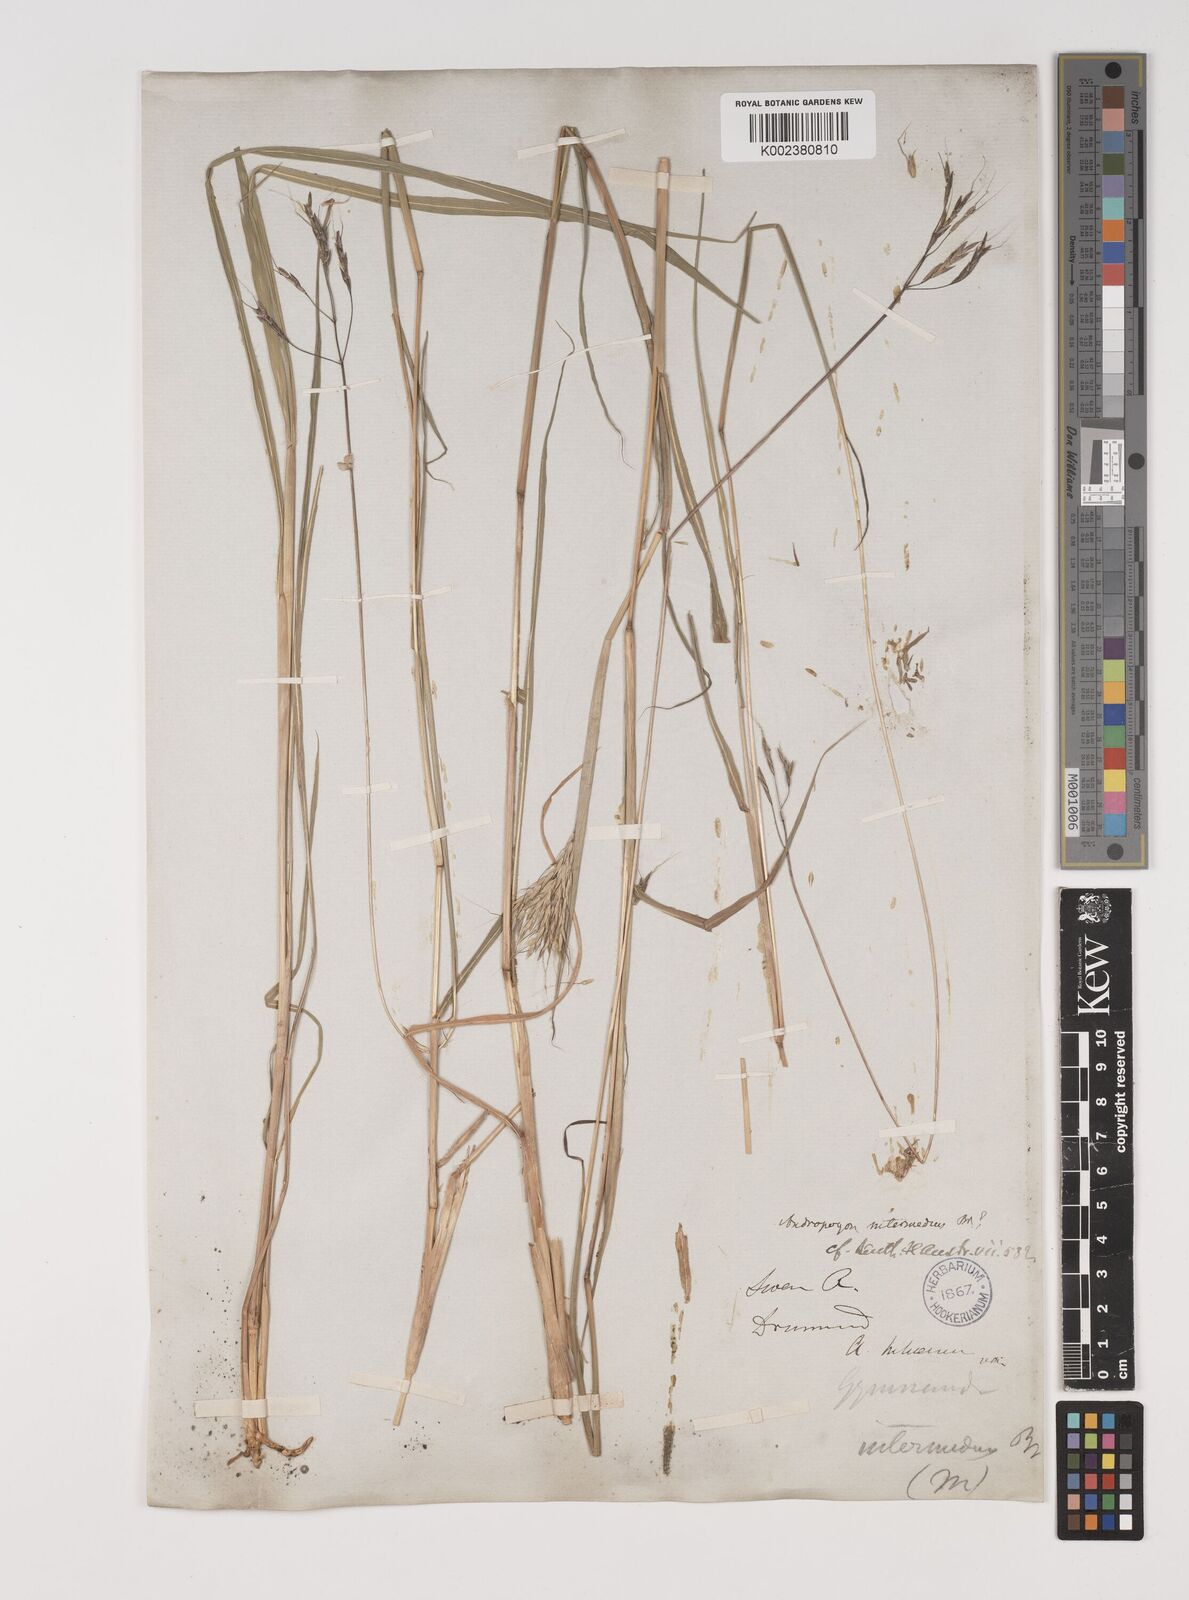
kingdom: Plantae
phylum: Tracheophyta
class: Liliopsida
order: Poales
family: Poaceae
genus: Bothriochloa
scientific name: Bothriochloa bladhii
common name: Caucasian bluestem
